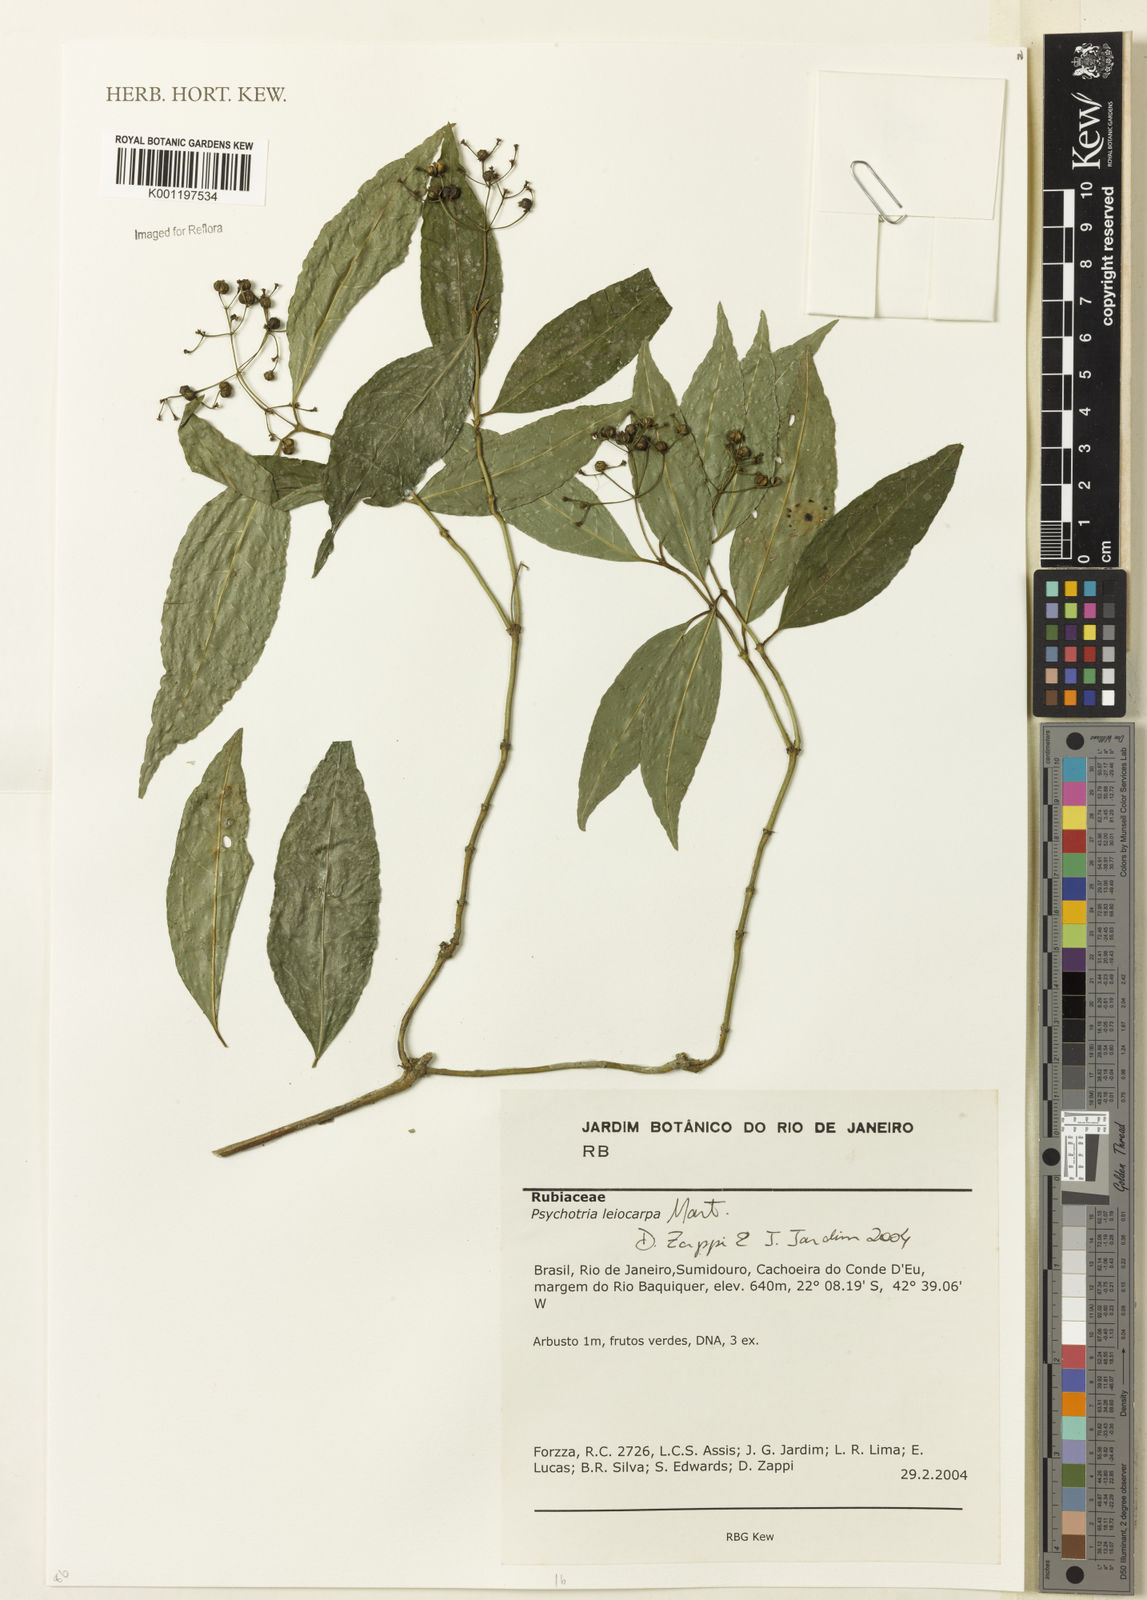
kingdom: Plantae
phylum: Tracheophyta
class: Magnoliopsida
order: Gentianales
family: Rubiaceae
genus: Psychotria
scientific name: Psychotria nemorosa
